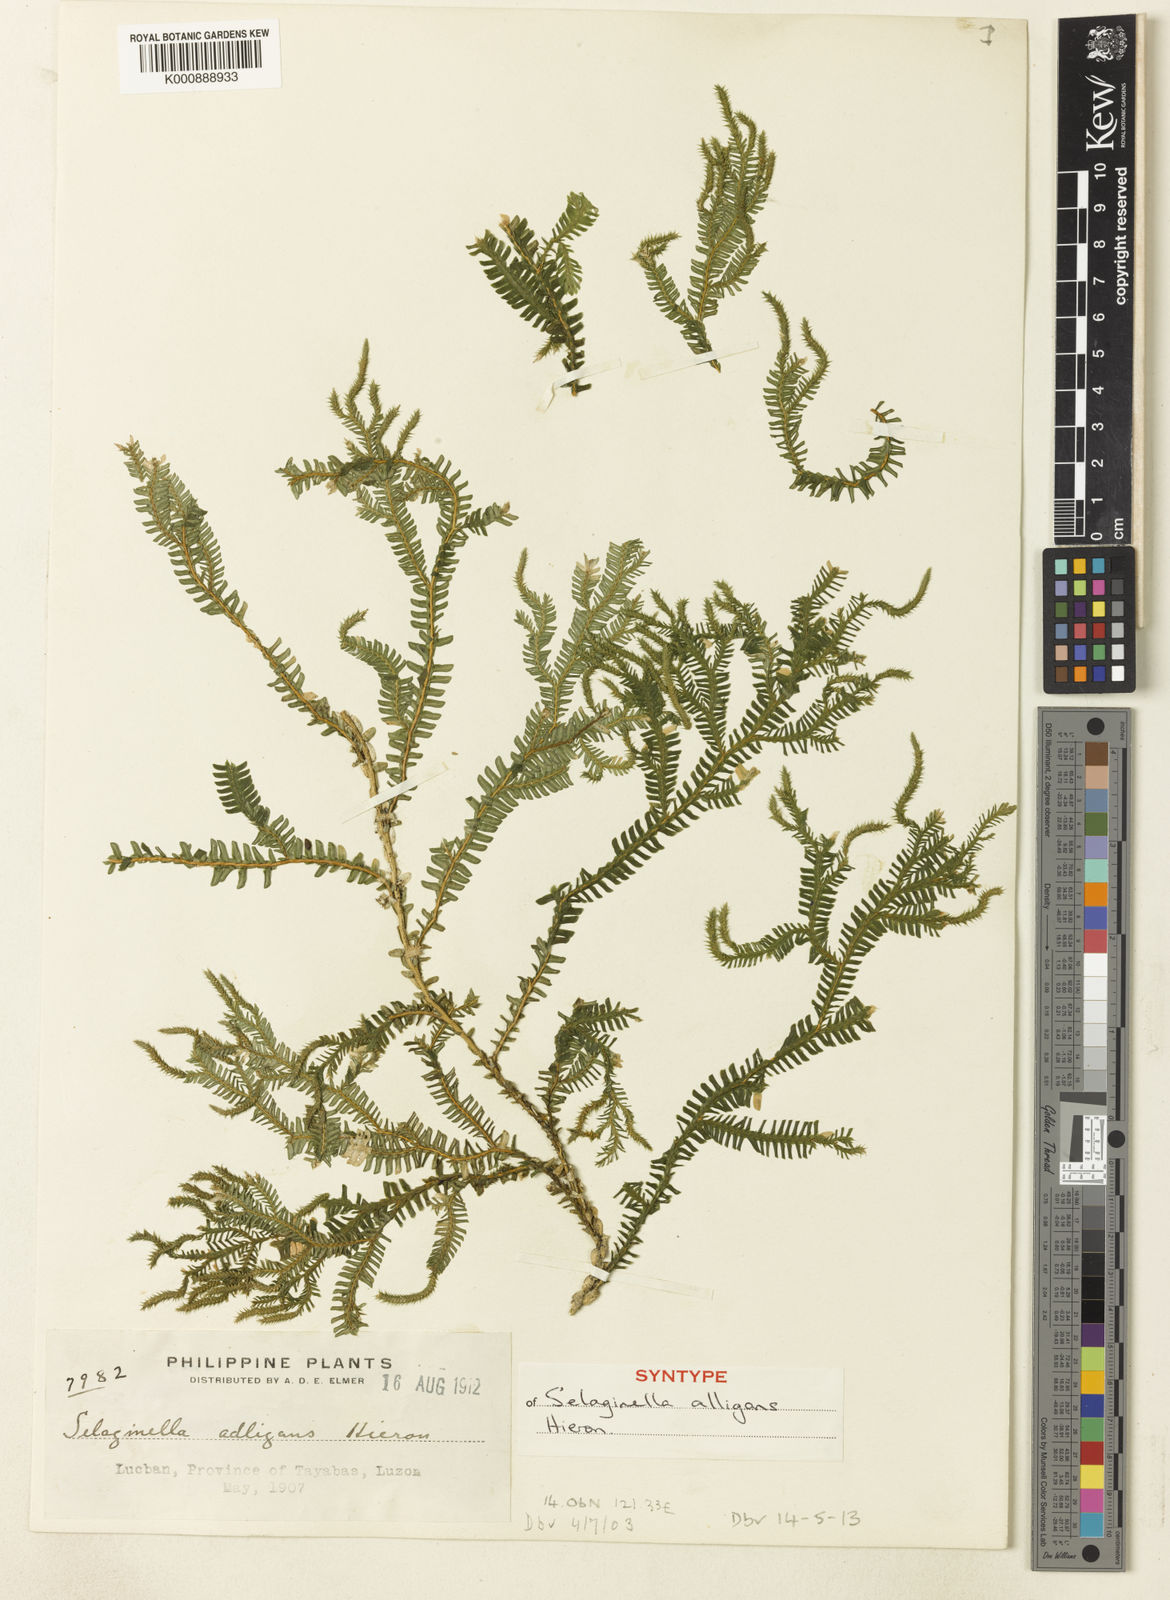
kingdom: Plantae
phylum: Tracheophyta
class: Lycopodiopsida
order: Selaginellales
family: Selaginellaceae
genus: Selaginella
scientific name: Selaginella alligans
